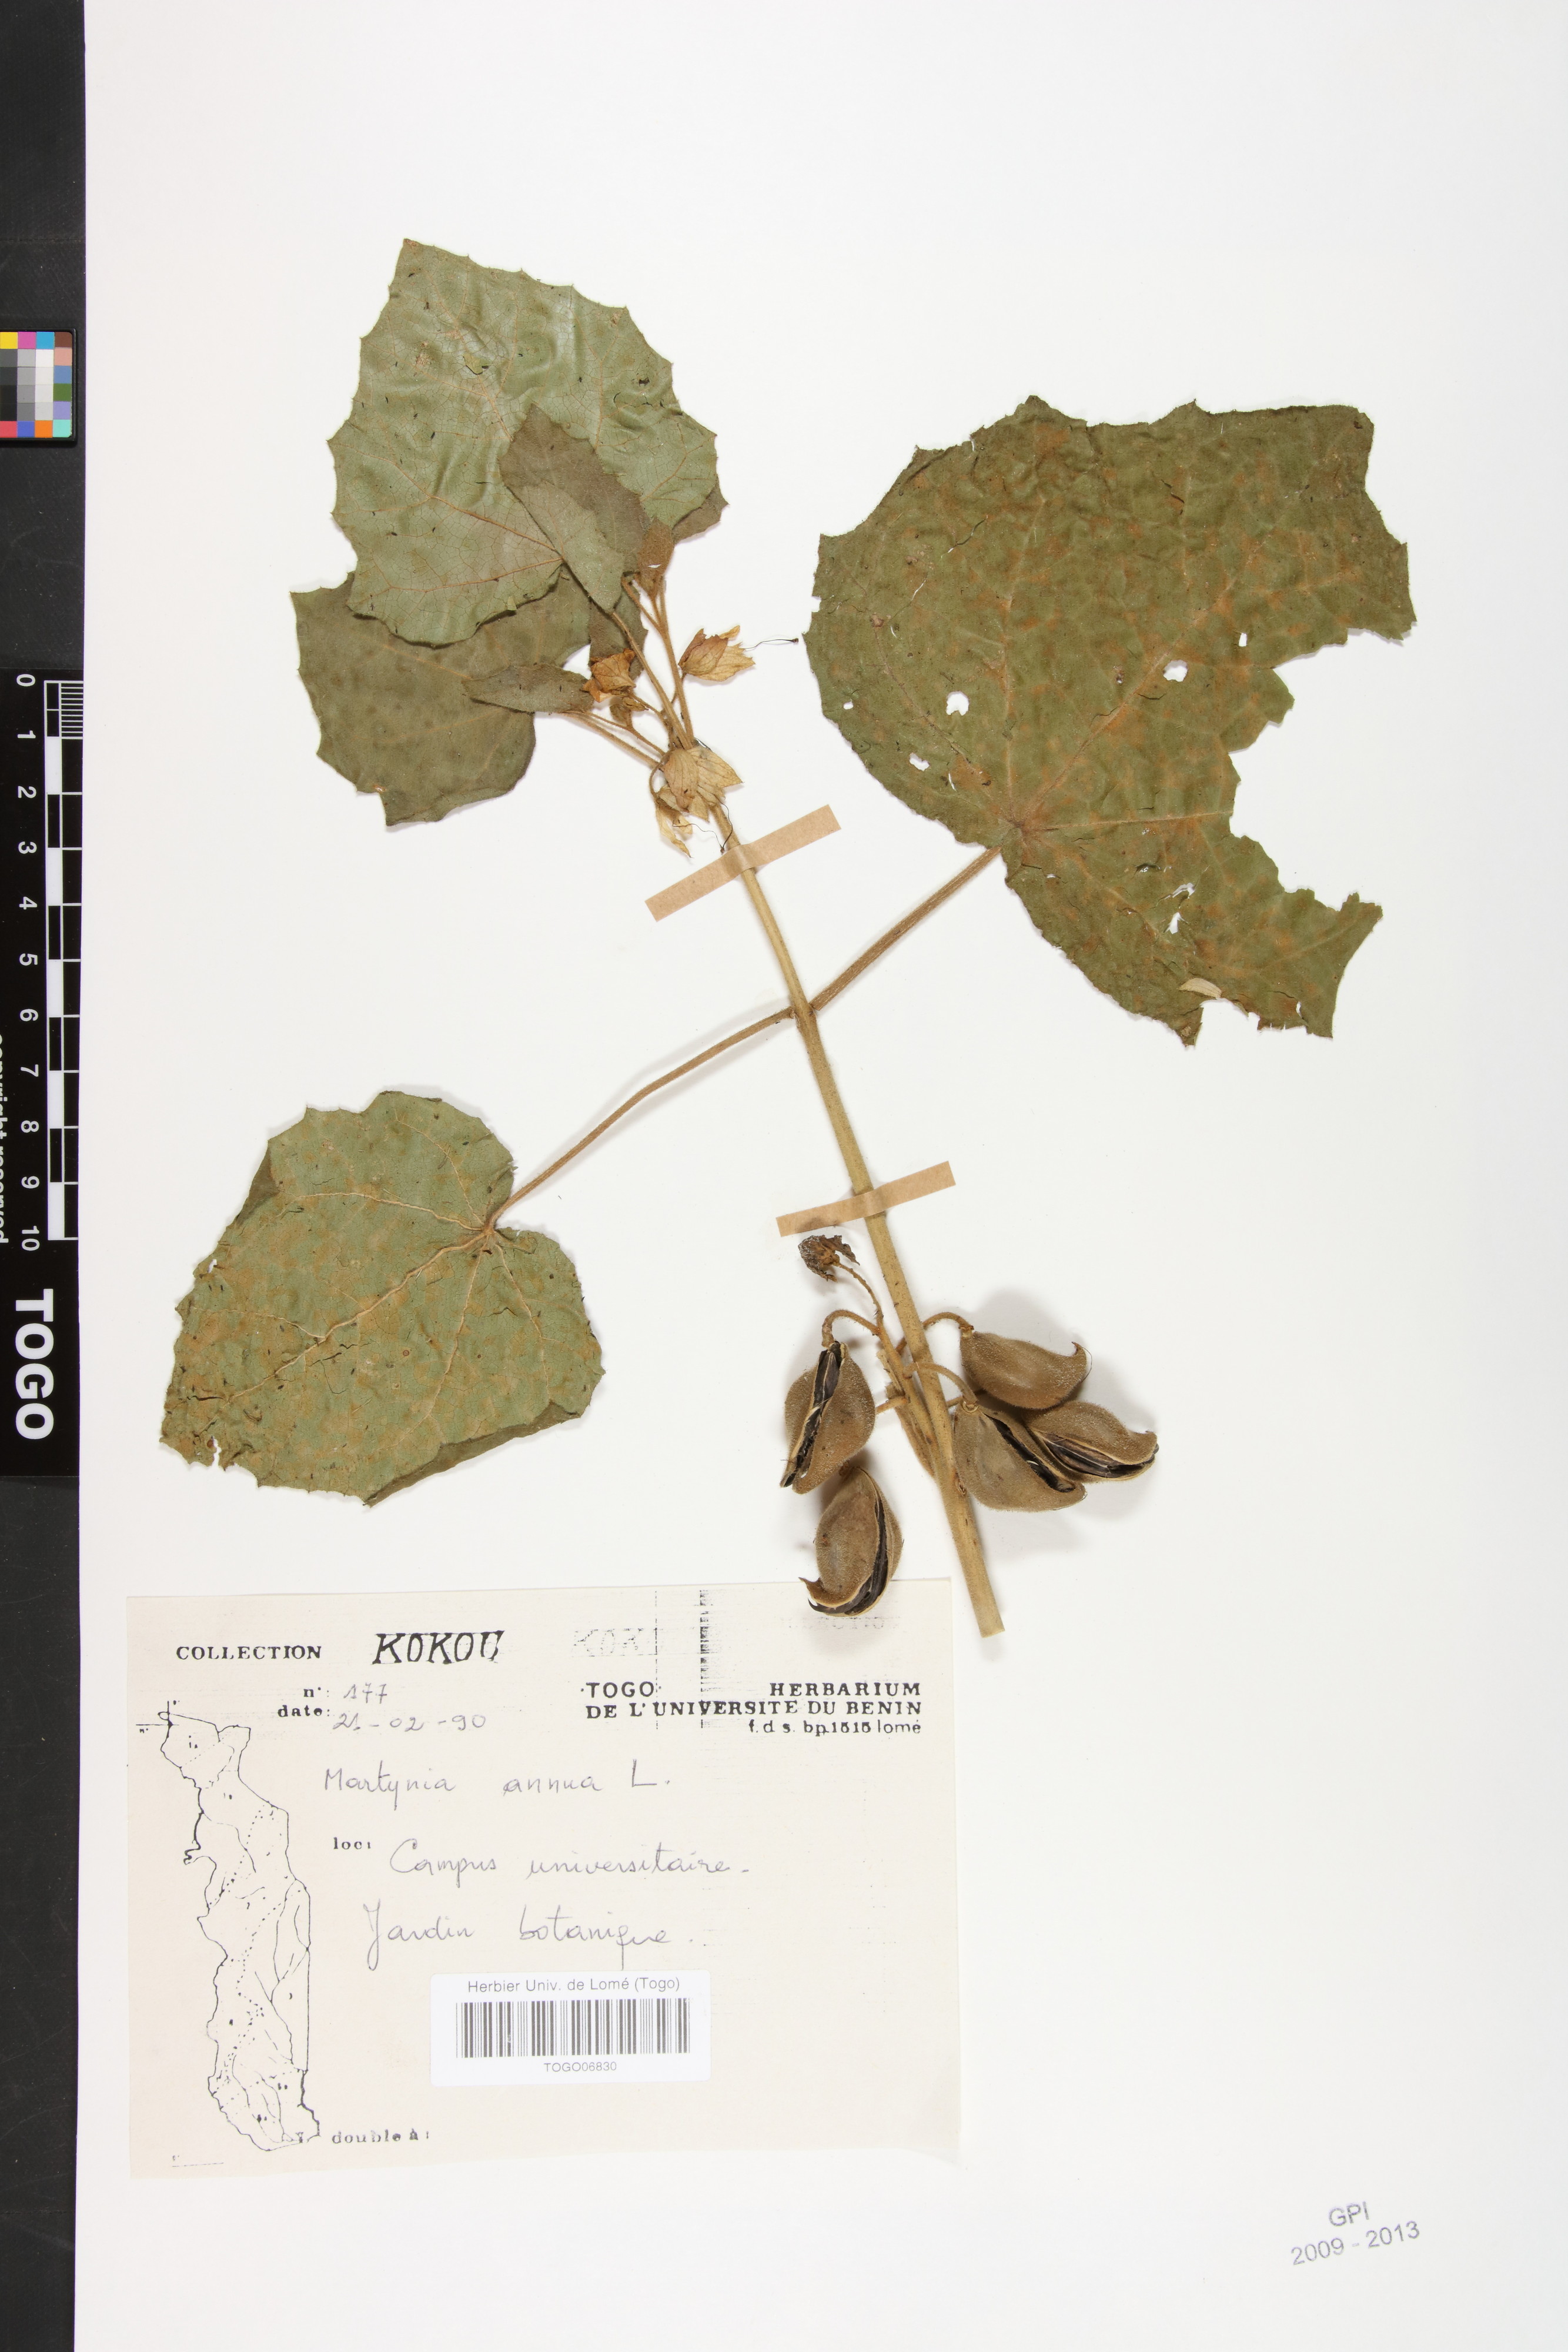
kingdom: Plantae
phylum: Tracheophyta
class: Magnoliopsida
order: Lamiales
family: Martyniaceae
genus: Martynia
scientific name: Martynia annua
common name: Tiger's-claw
